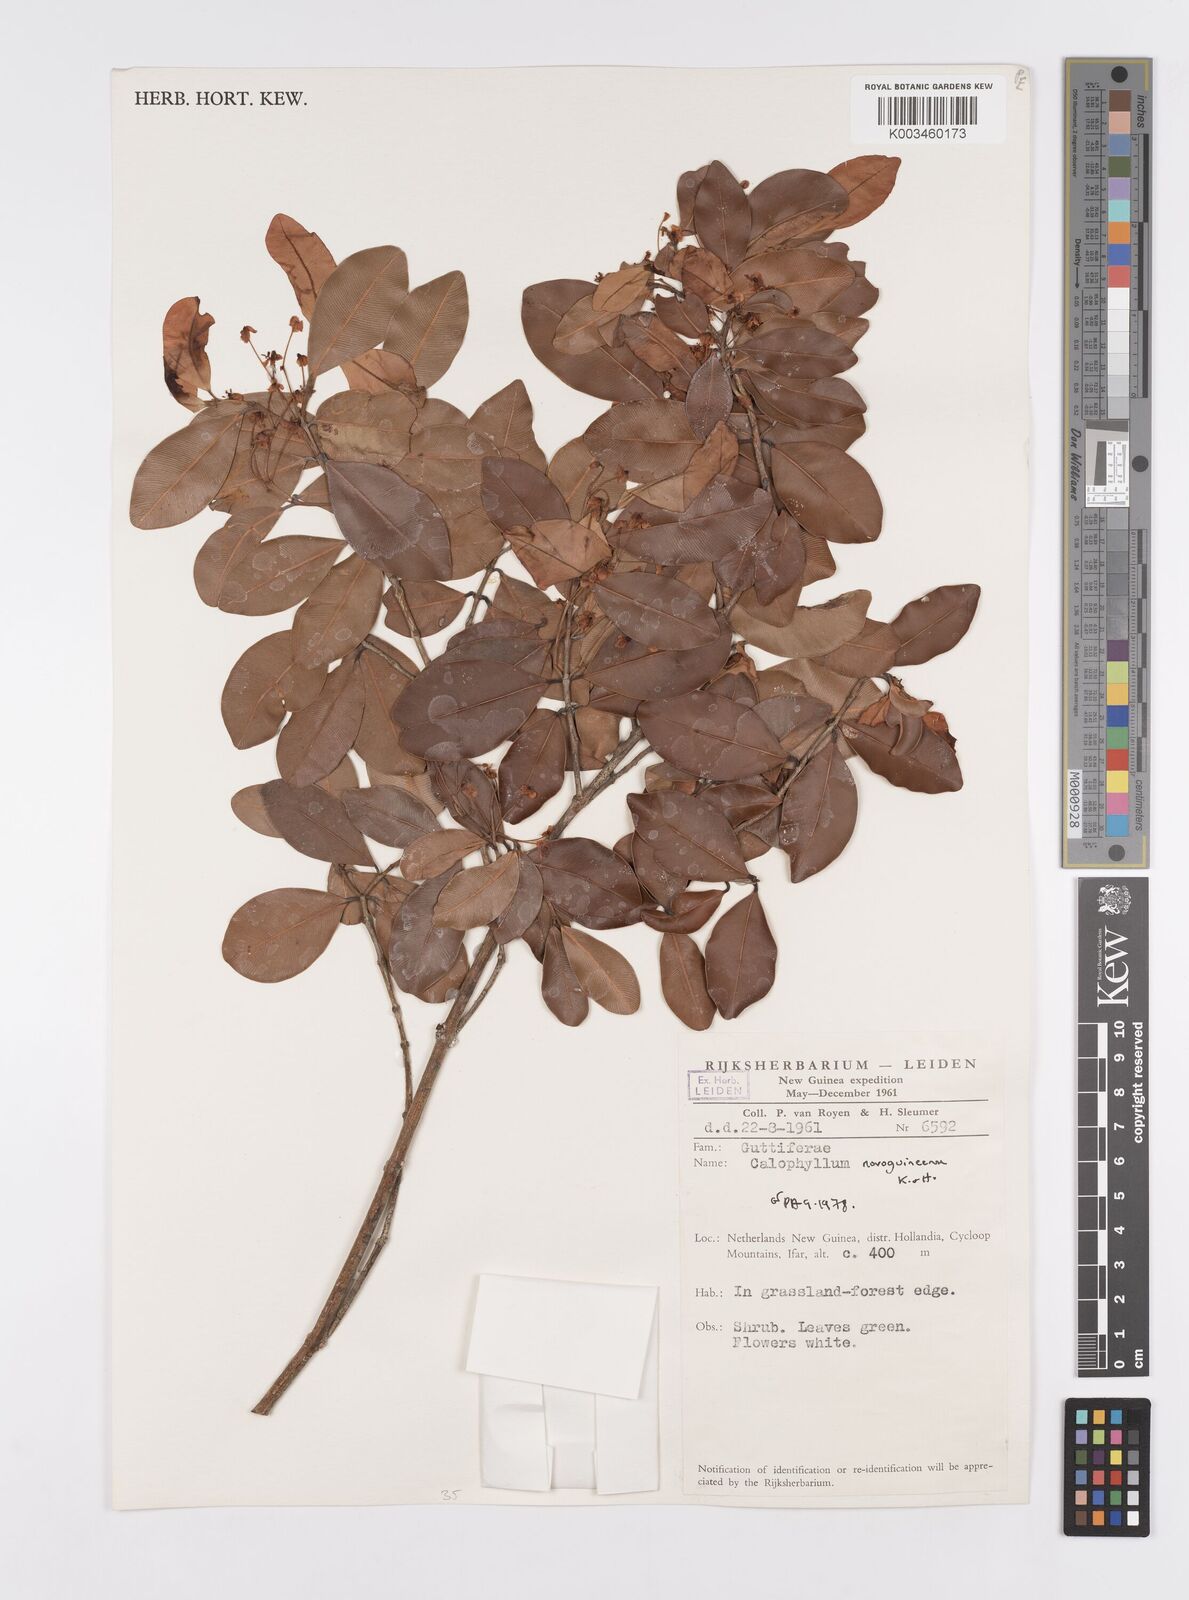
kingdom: Plantae
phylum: Tracheophyta
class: Magnoliopsida
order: Malpighiales
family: Calophyllaceae
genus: Calophyllum
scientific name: Calophyllum novoguineense
